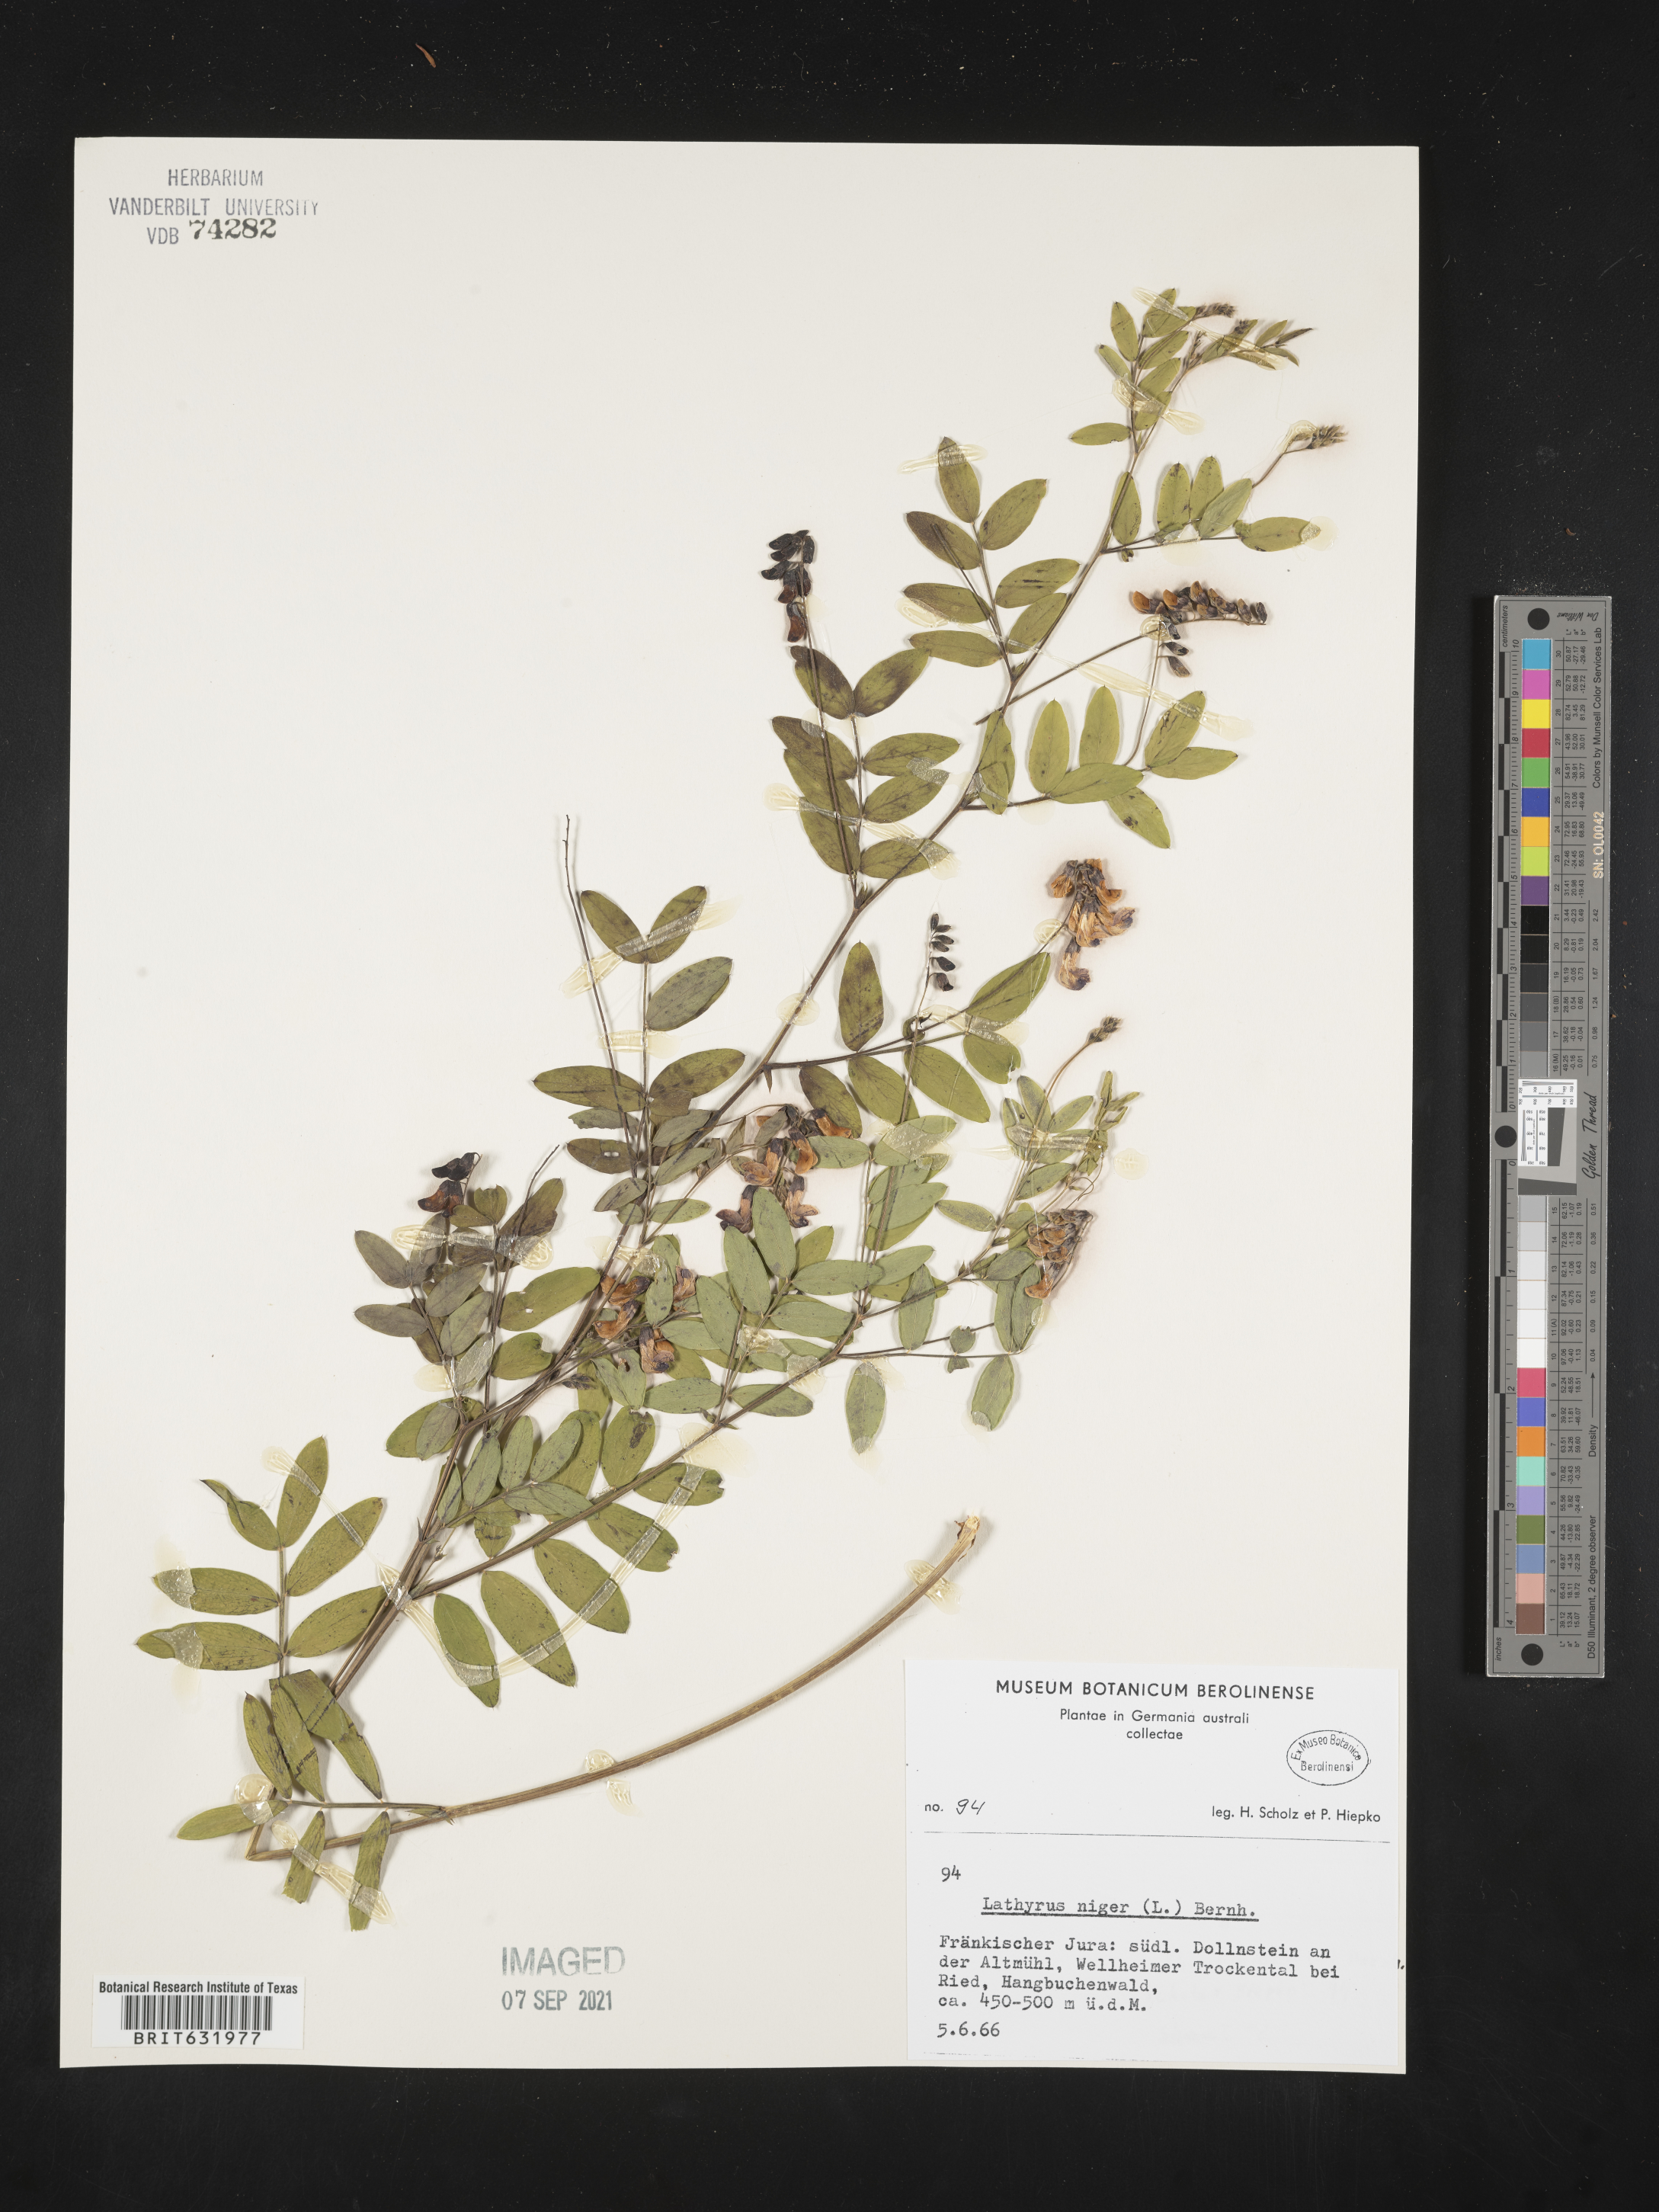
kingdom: Plantae
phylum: Tracheophyta
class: Magnoliopsida
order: Fabales
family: Fabaceae
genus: Lathyrus
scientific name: Lathyrus
